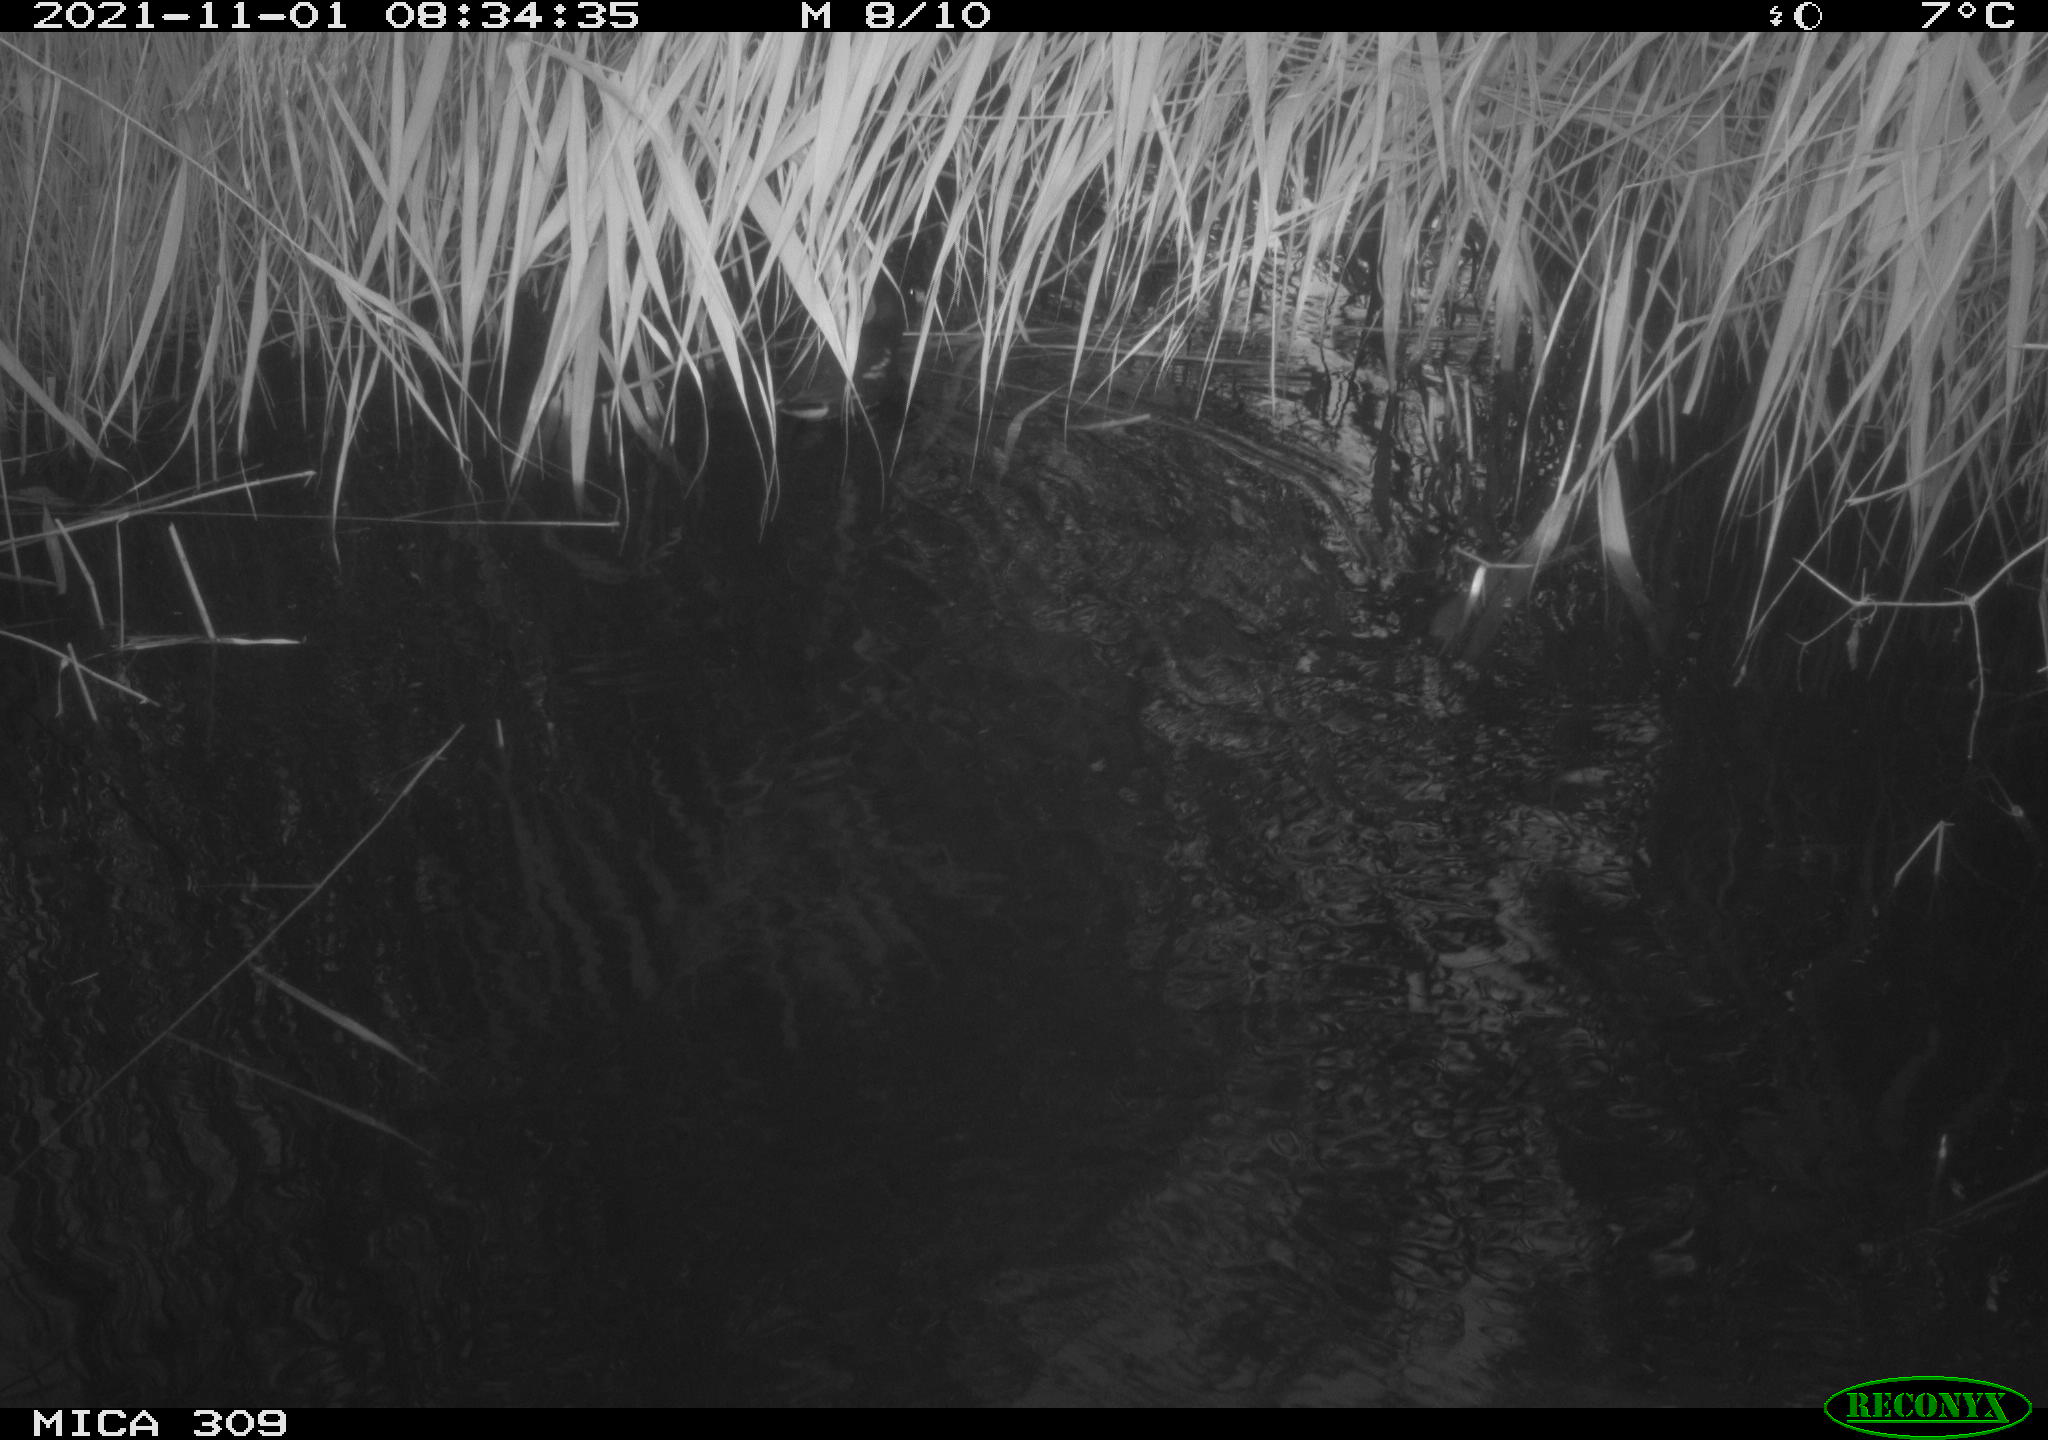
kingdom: Animalia
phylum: Chordata
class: Aves
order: Gruiformes
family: Rallidae
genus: Gallinula
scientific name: Gallinula chloropus
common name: Common moorhen
